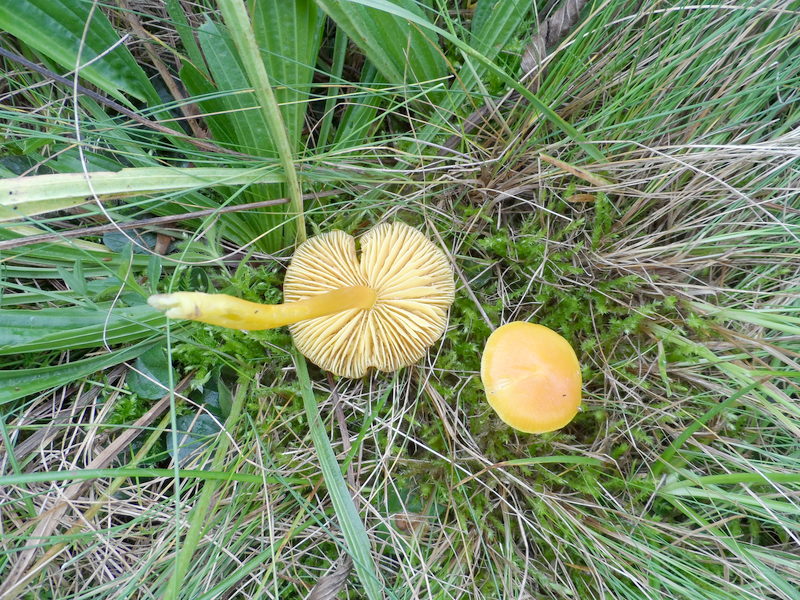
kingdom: Fungi
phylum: Basidiomycota
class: Agaricomycetes
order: Agaricales
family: Hygrophoraceae
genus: Hygrocybe
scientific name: Hygrocybe chlorophana
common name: Golden waxcap
